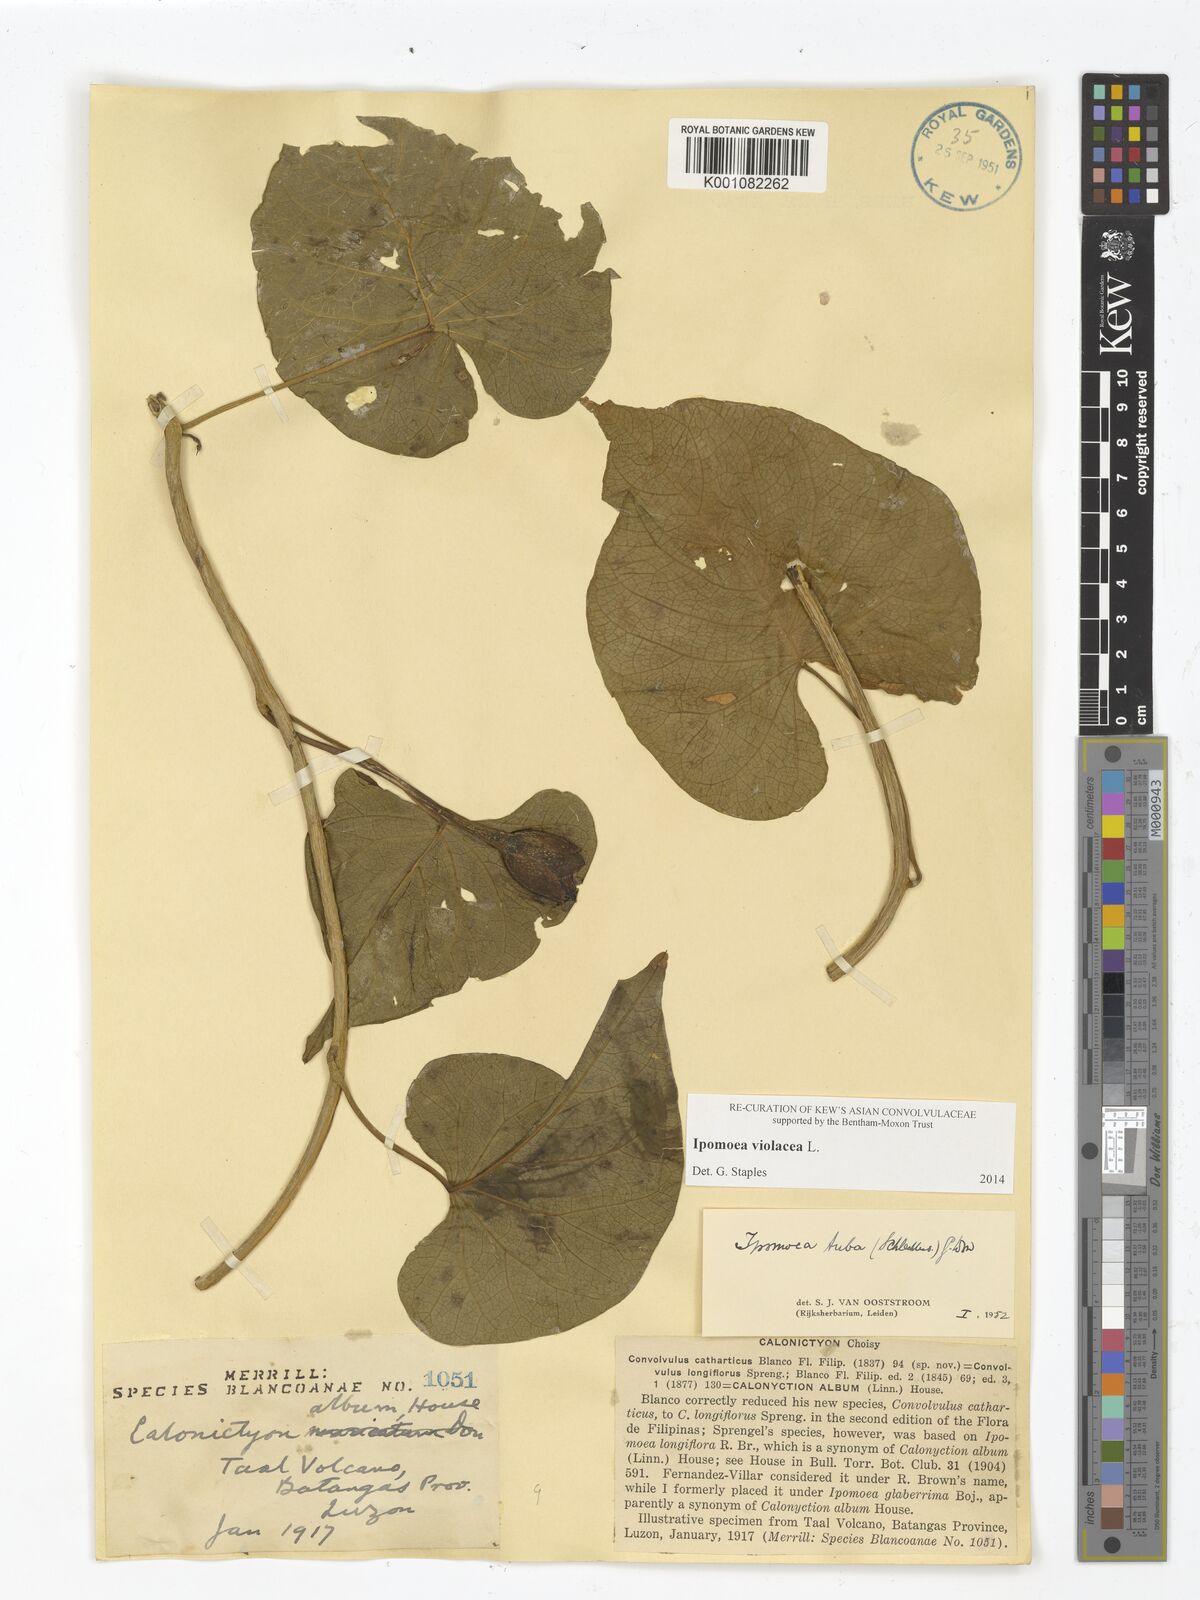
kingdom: Plantae
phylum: Tracheophyta
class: Magnoliopsida
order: Solanales
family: Convolvulaceae
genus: Ipomoea
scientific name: Ipomoea violacea
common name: Beach moonflower
